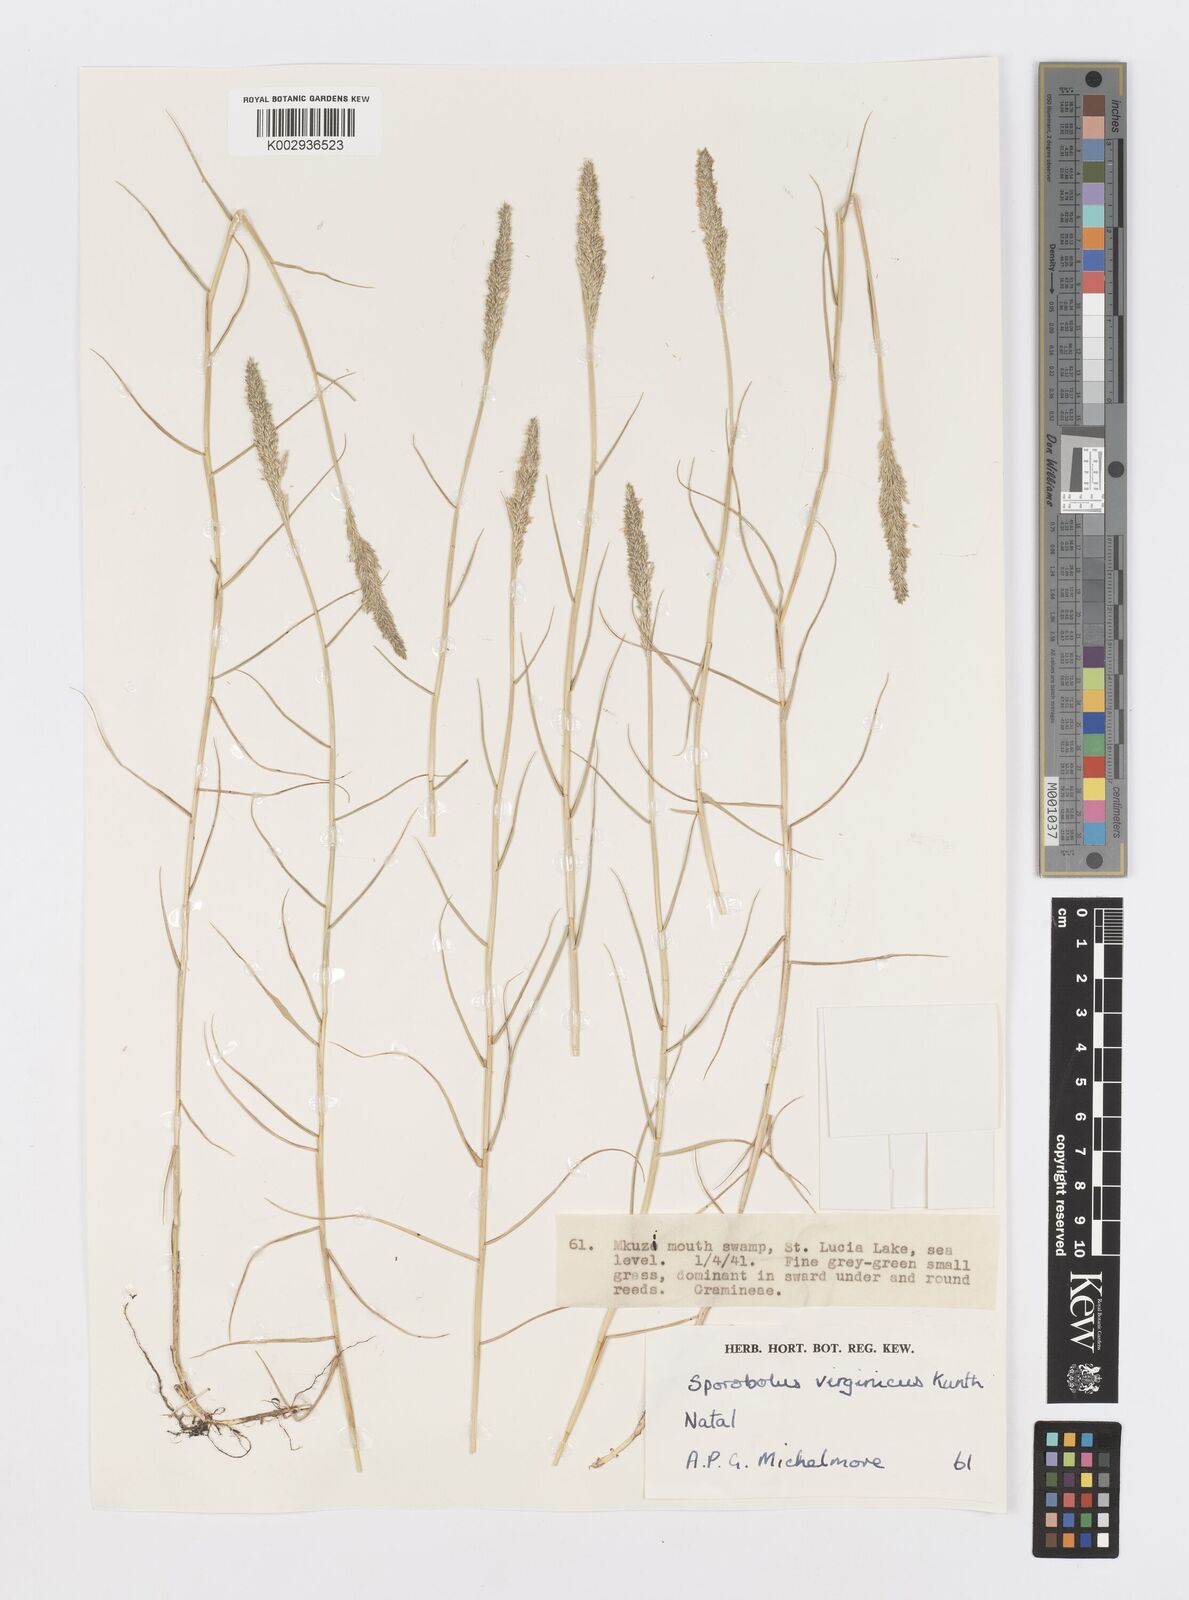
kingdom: Plantae
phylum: Tracheophyta
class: Liliopsida
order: Poales
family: Poaceae
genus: Sporobolus
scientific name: Sporobolus virginicus
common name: Beach dropseed
